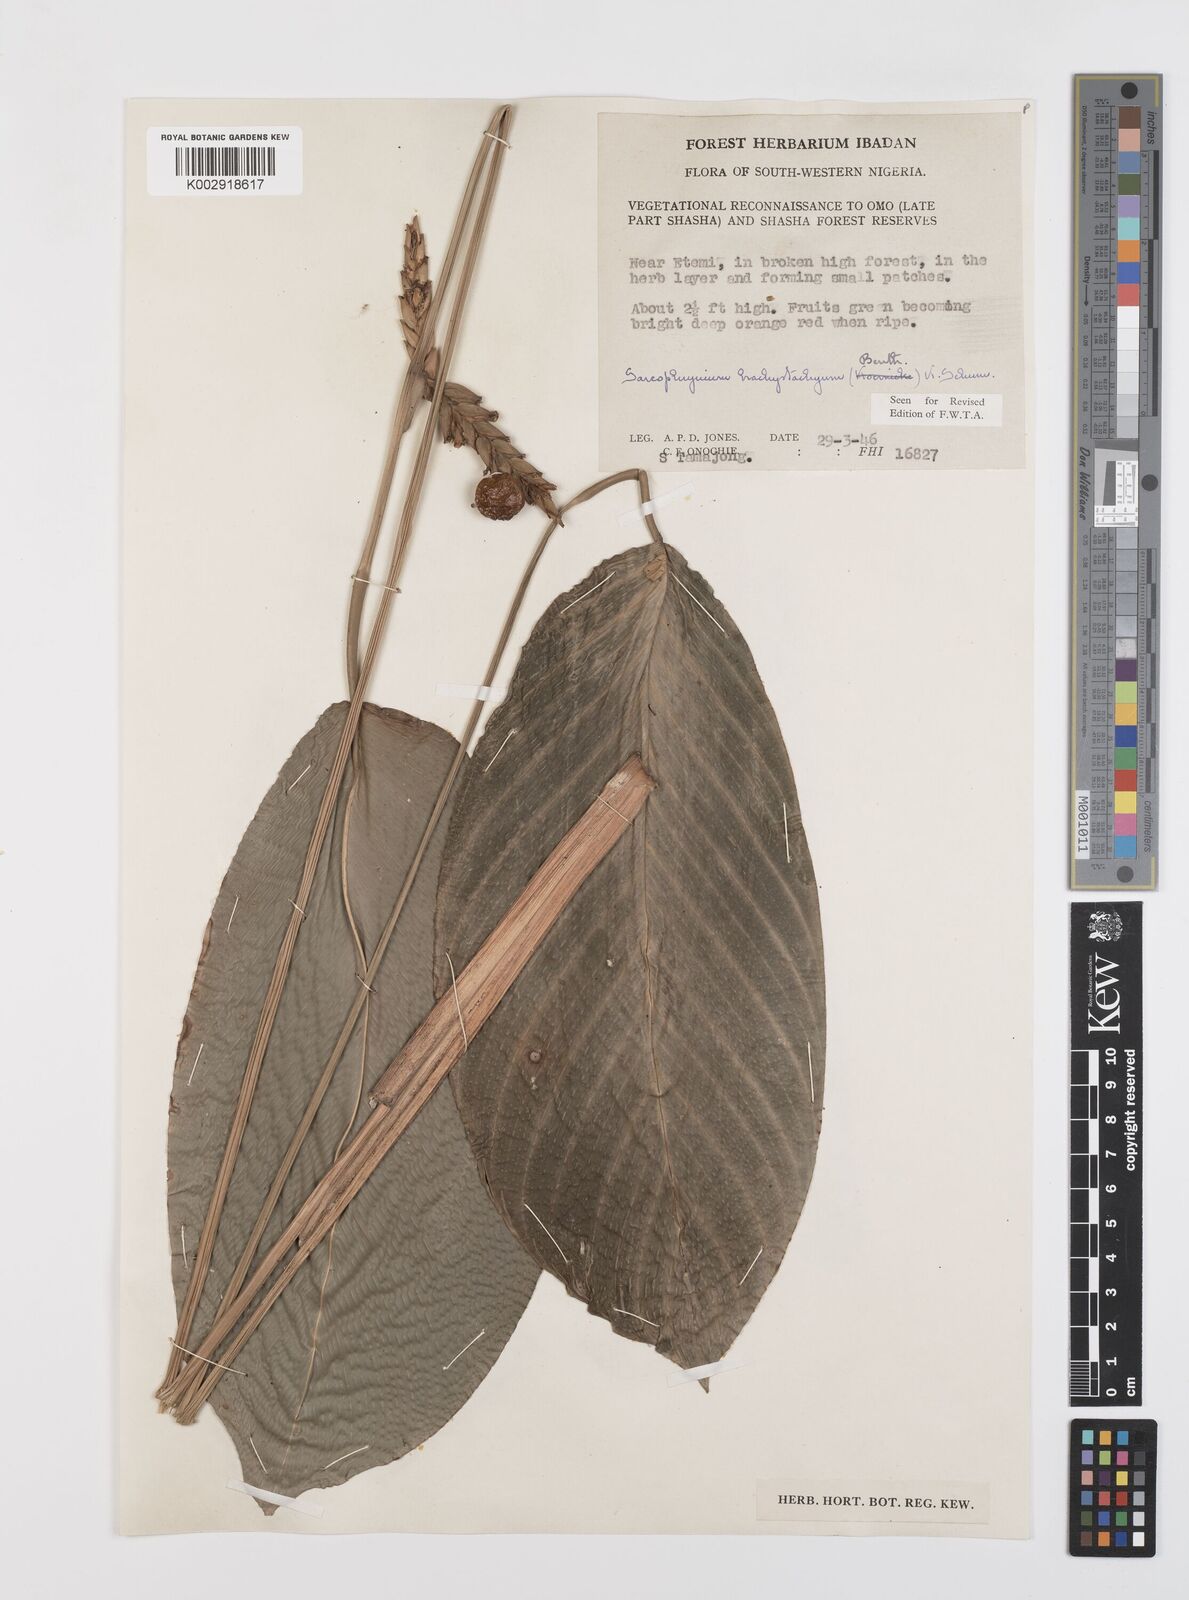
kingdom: Plantae
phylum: Tracheophyta
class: Liliopsida
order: Zingiberales
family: Marantaceae
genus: Sarcophrynium
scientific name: Sarcophrynium brachystachyum
